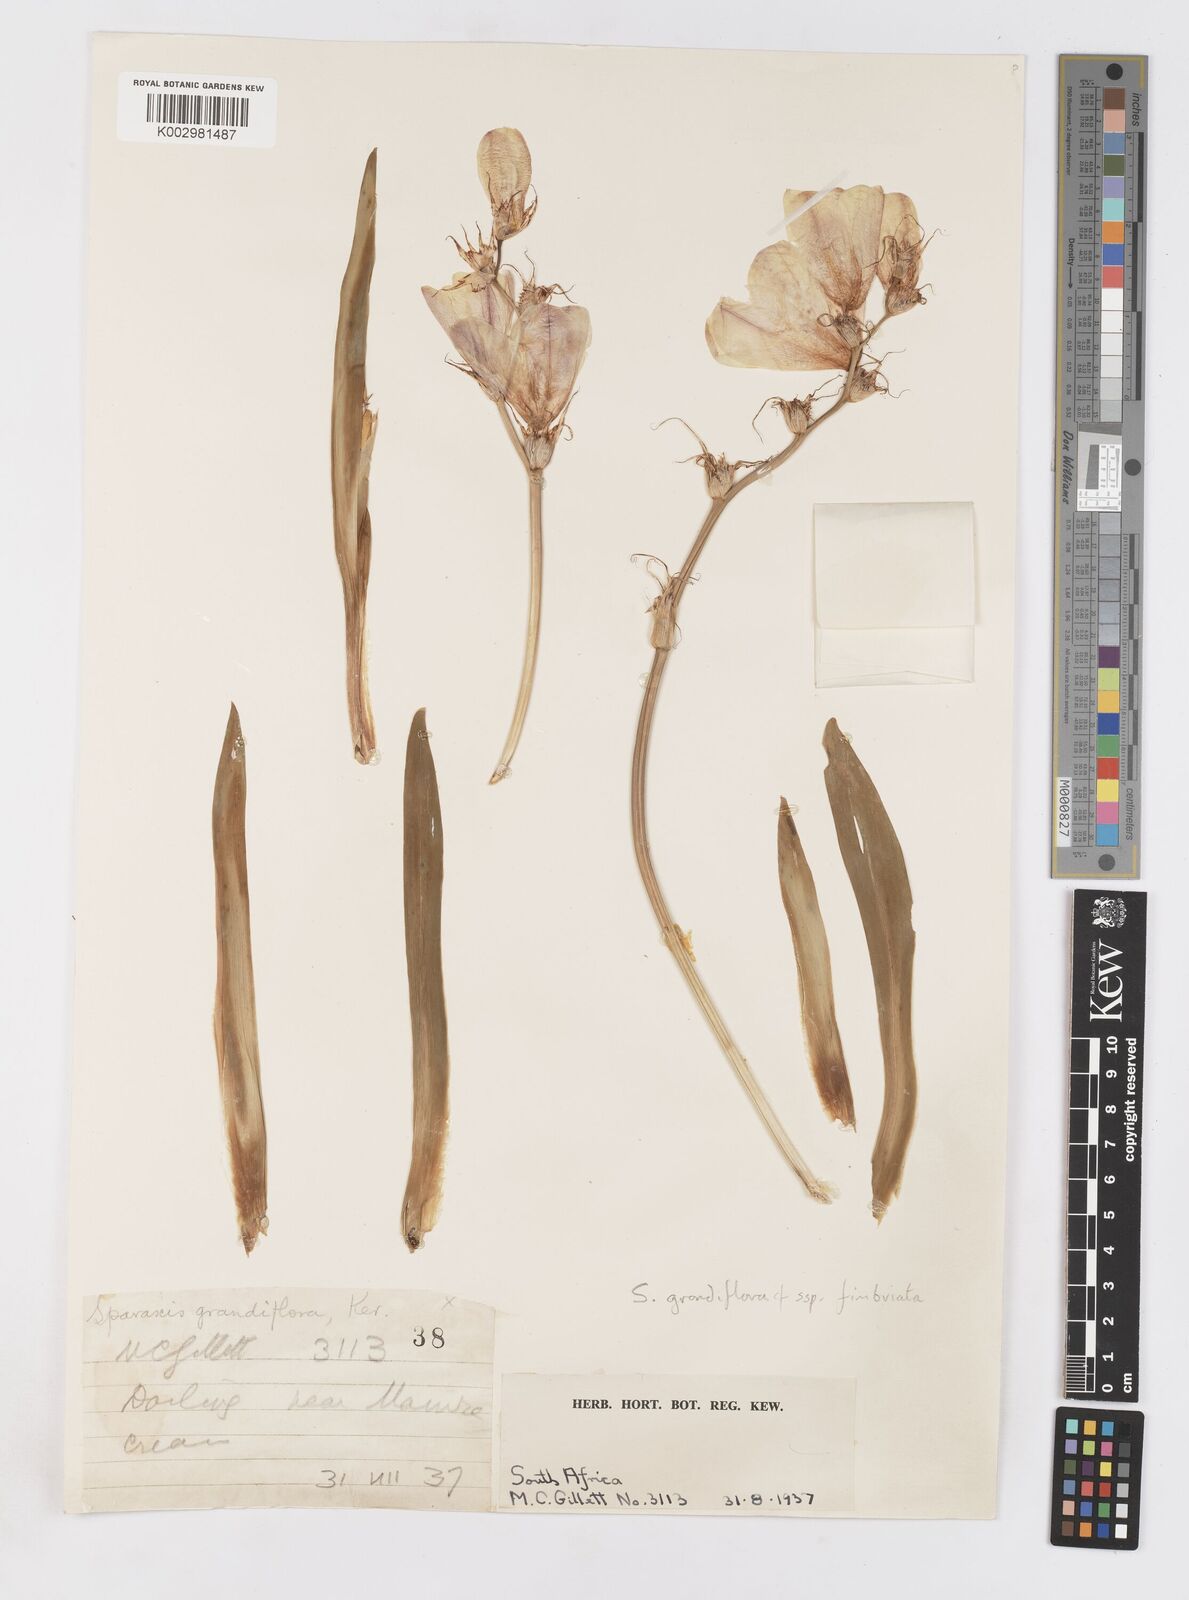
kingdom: Plantae
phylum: Tracheophyta
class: Liliopsida
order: Asparagales
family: Iridaceae
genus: Sparaxis
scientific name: Sparaxis grandiflora
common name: Plain harlequin-flower
